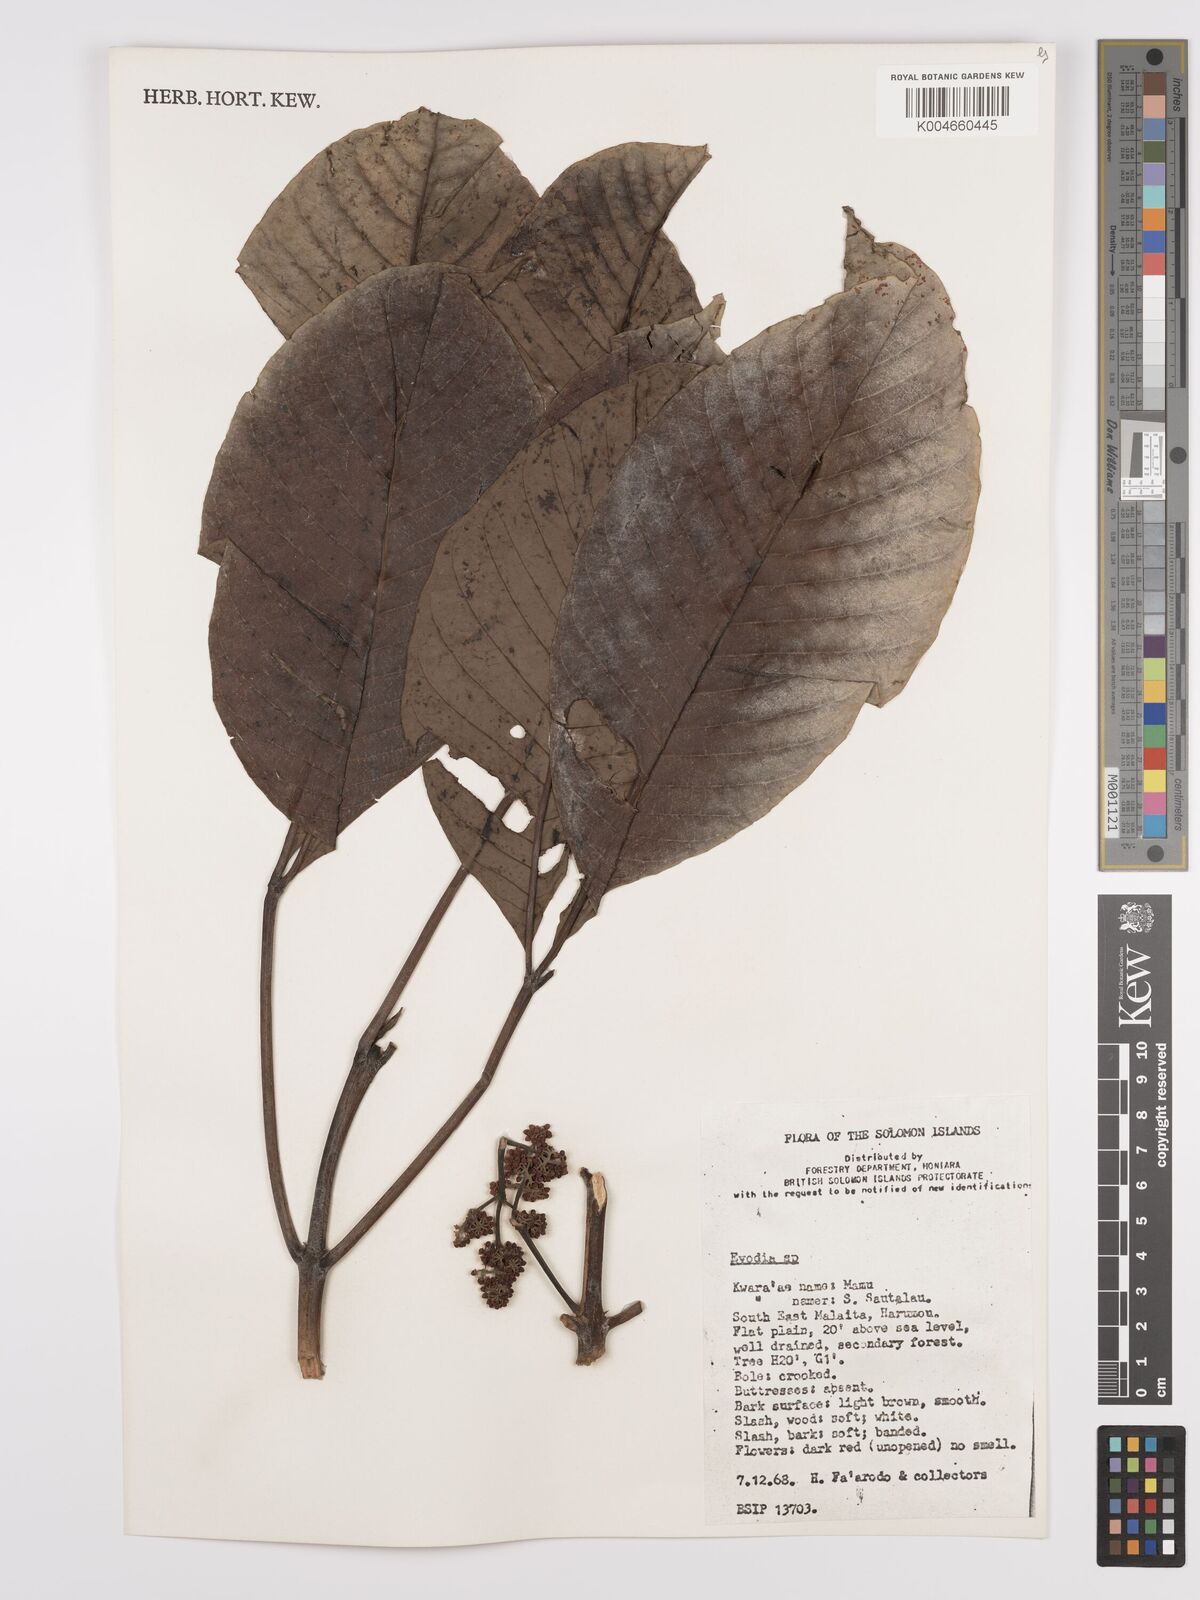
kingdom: Plantae
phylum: Tracheophyta
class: Magnoliopsida
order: Sapindales
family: Rutaceae
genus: Euodia
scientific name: Euodia
